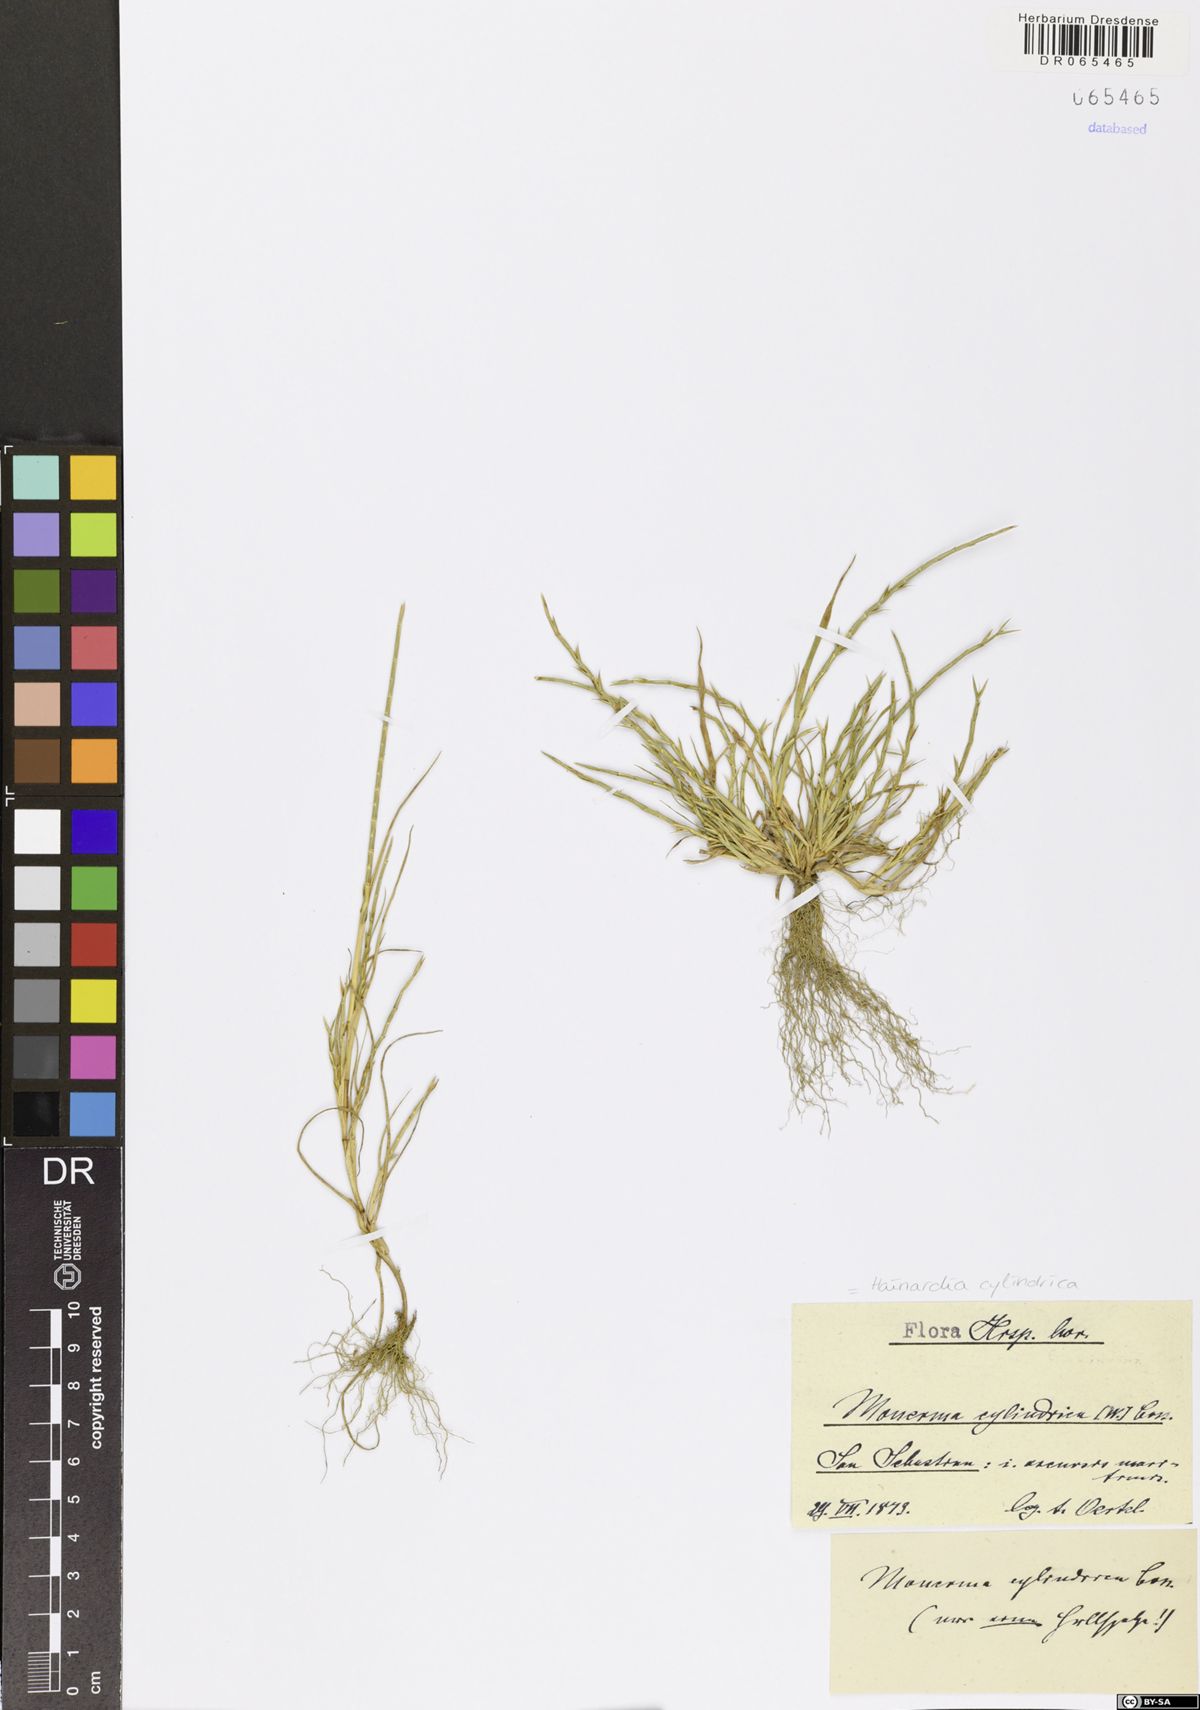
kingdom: Plantae
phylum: Tracheophyta
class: Liliopsida
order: Poales
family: Poaceae
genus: Parapholis
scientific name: Parapholis cylindrica
